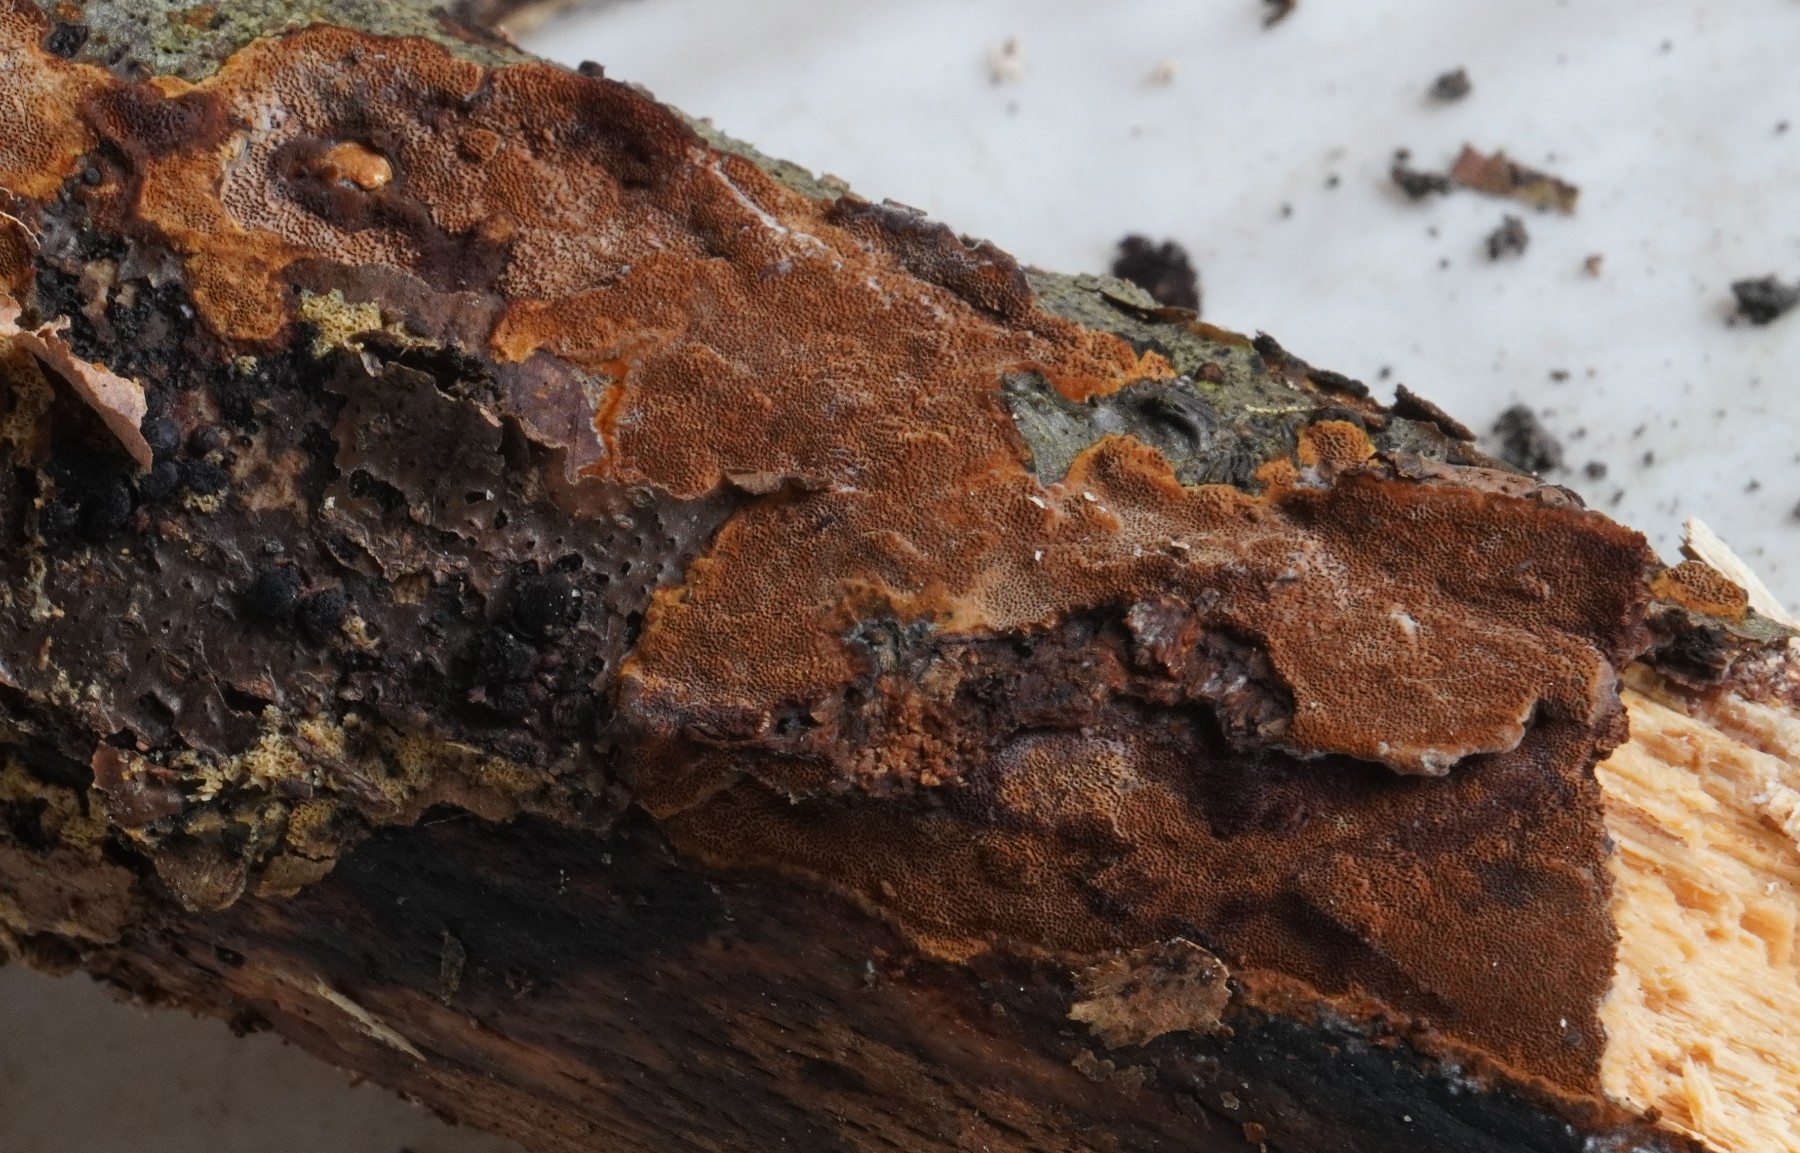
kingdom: Fungi
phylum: Basidiomycota
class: Agaricomycetes
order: Hymenochaetales
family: Hymenochaetaceae
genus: Fuscoporia
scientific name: Fuscoporia ferruginosa
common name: rustbrun ildporesvamp
